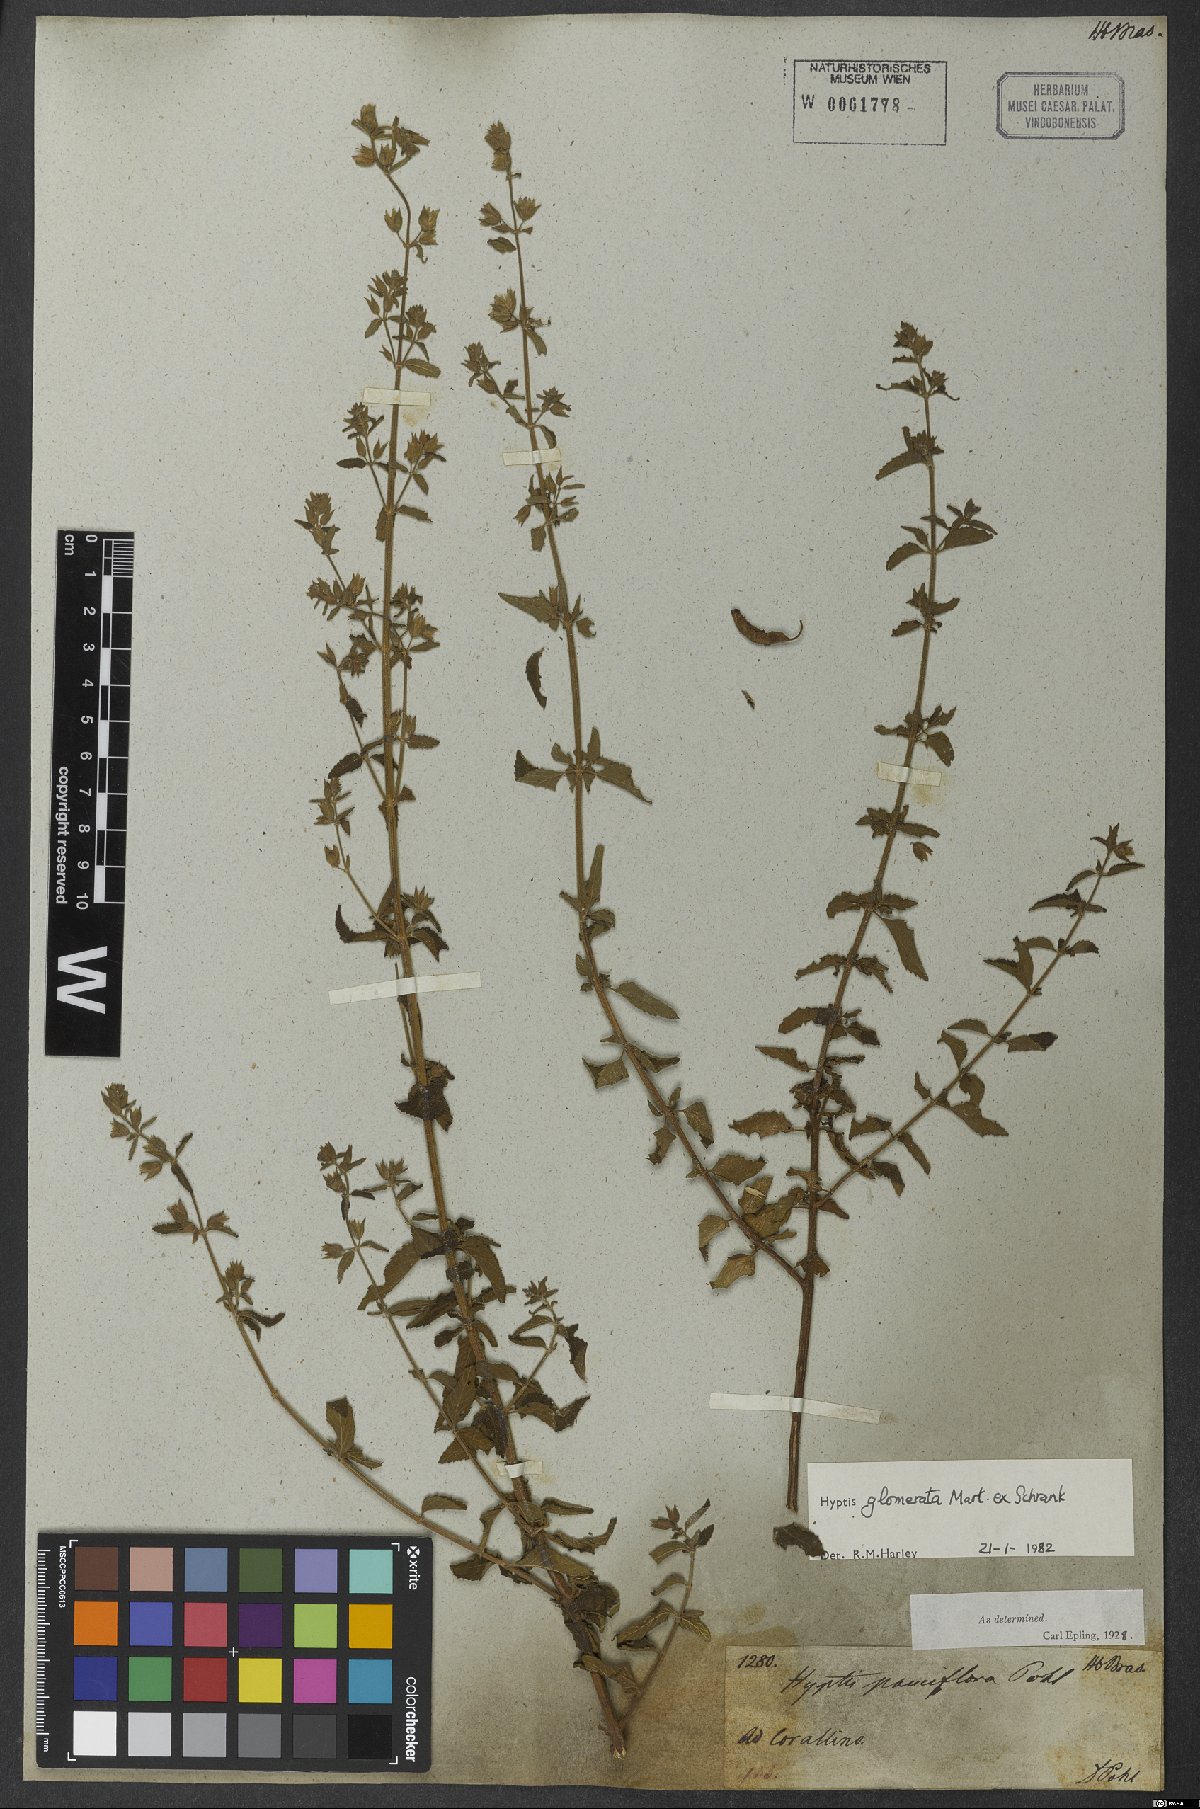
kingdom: Plantae
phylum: Tracheophyta
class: Magnoliopsida
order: Lamiales
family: Lamiaceae
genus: Oocephalus
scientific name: Oocephalus oppositiflorus
